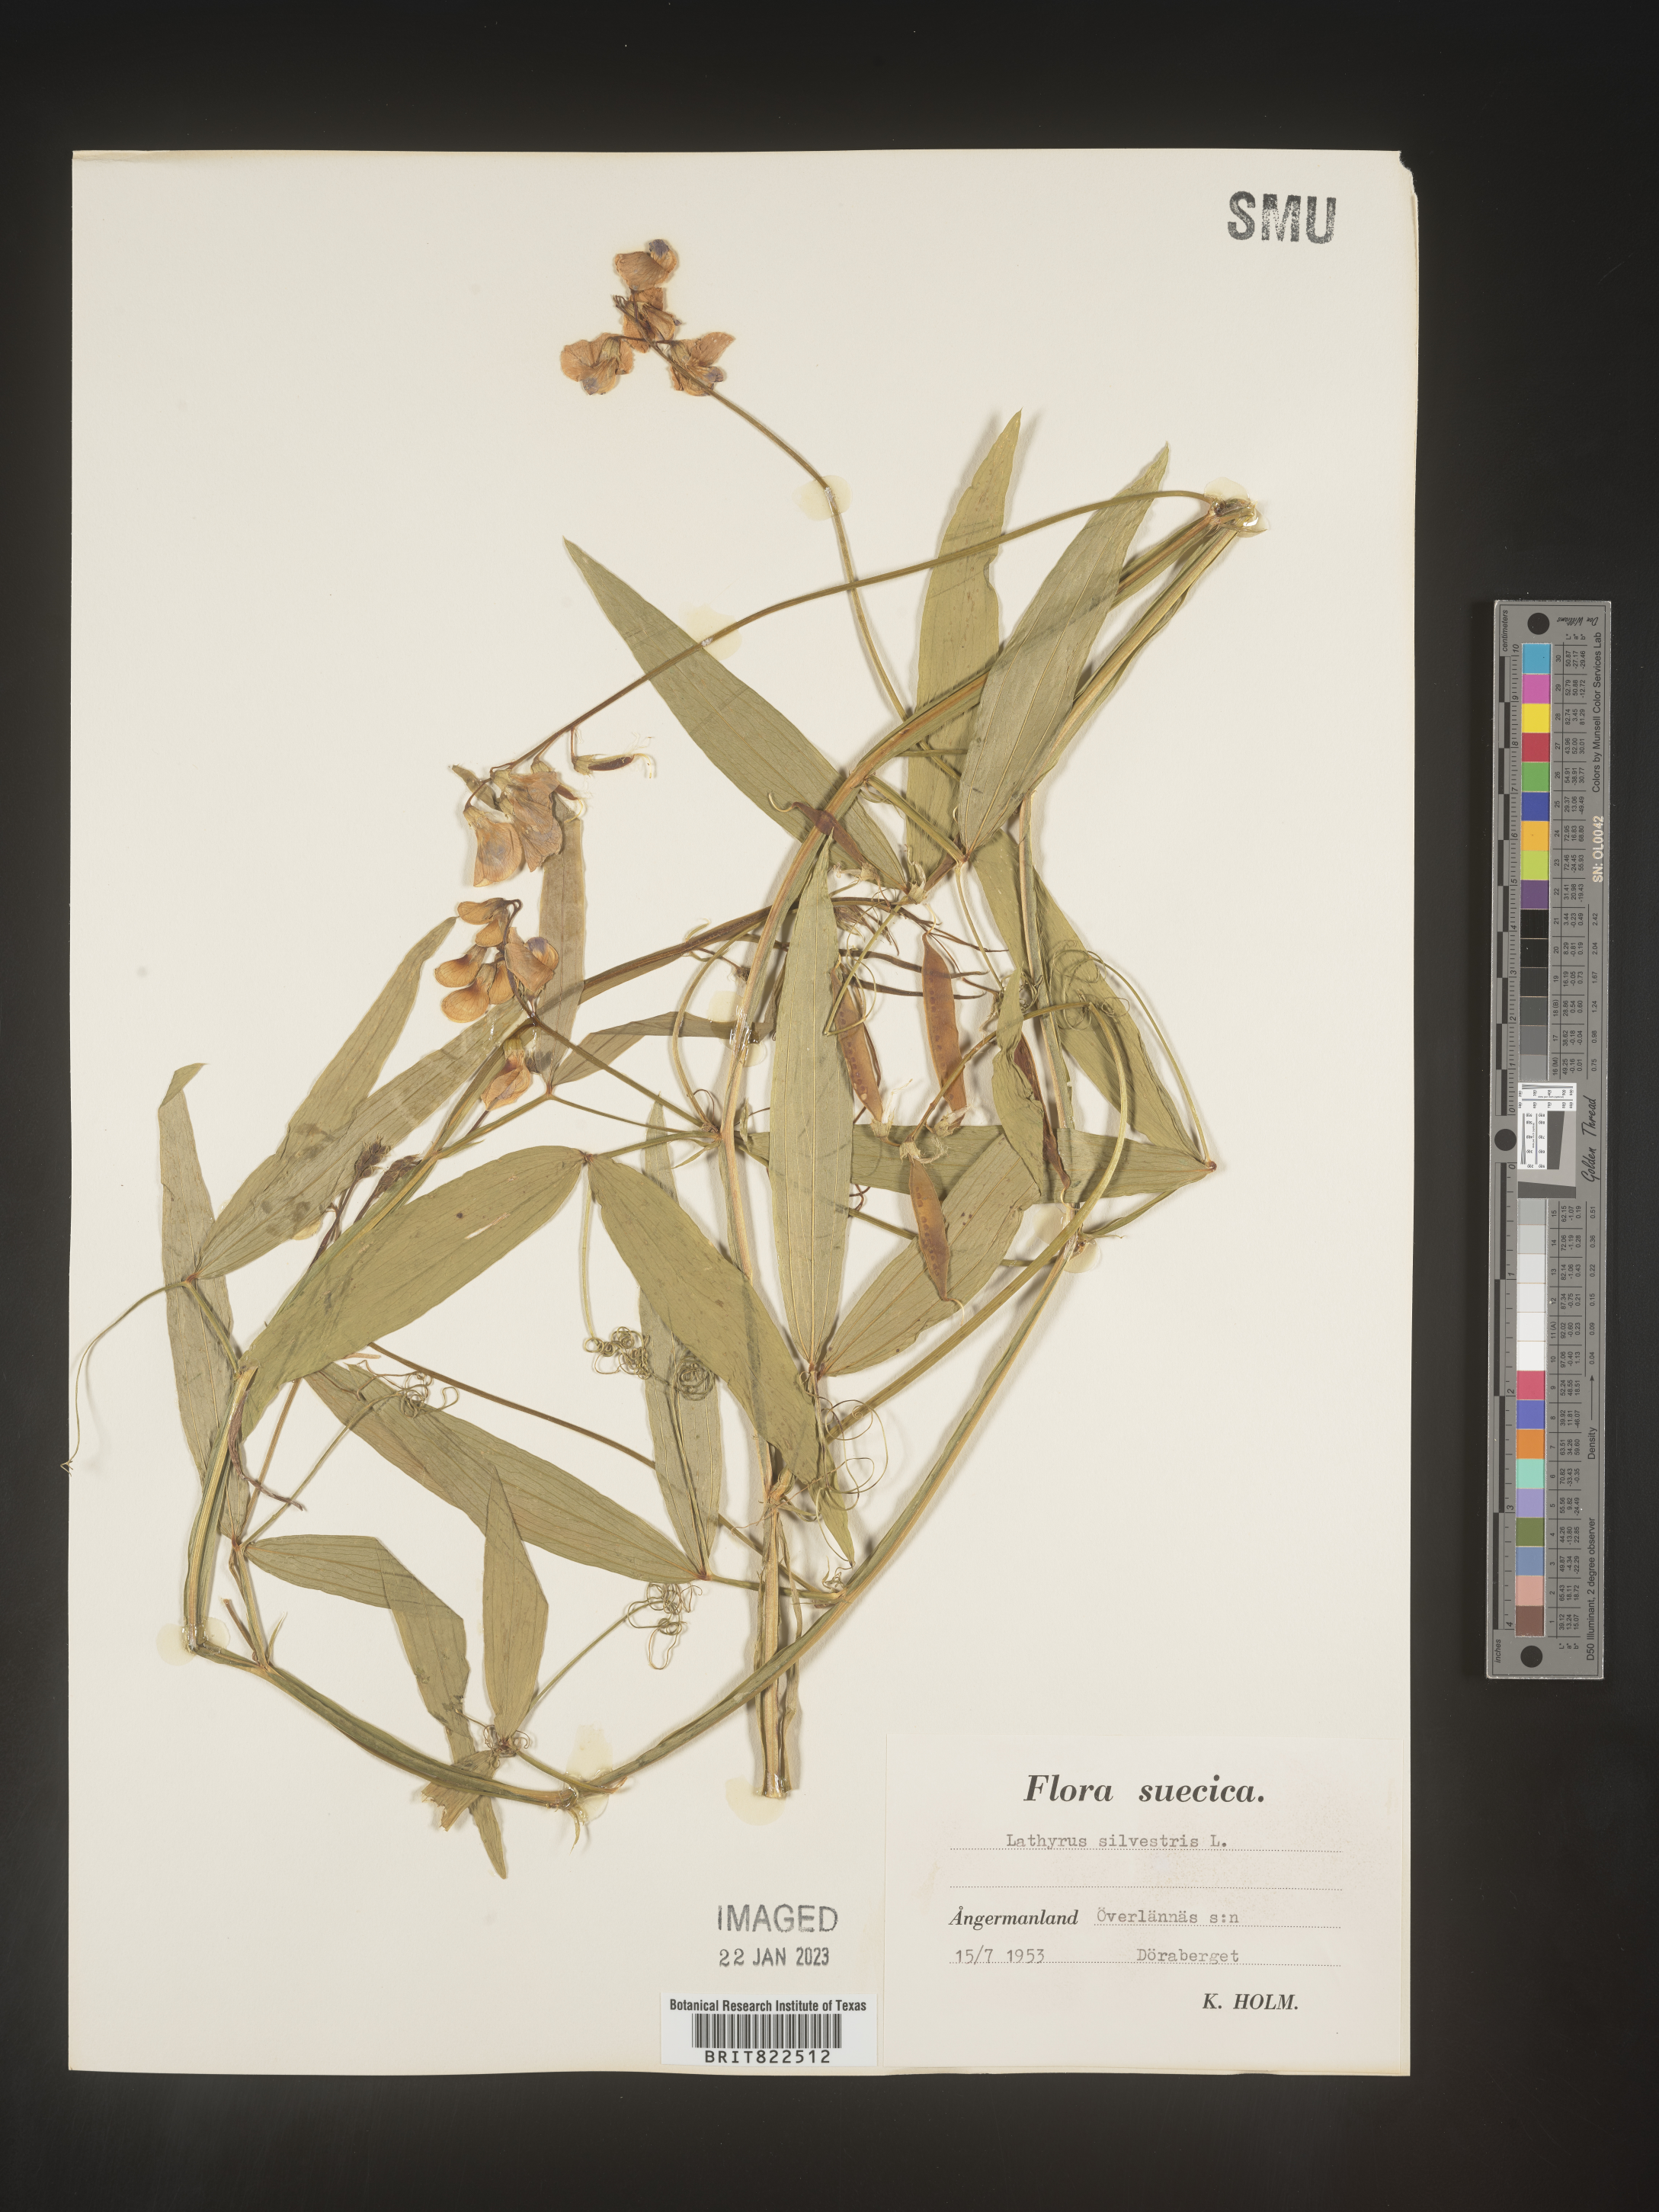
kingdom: Plantae
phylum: Tracheophyta
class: Magnoliopsida
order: Fabales
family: Fabaceae
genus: Lathyrus
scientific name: Lathyrus
